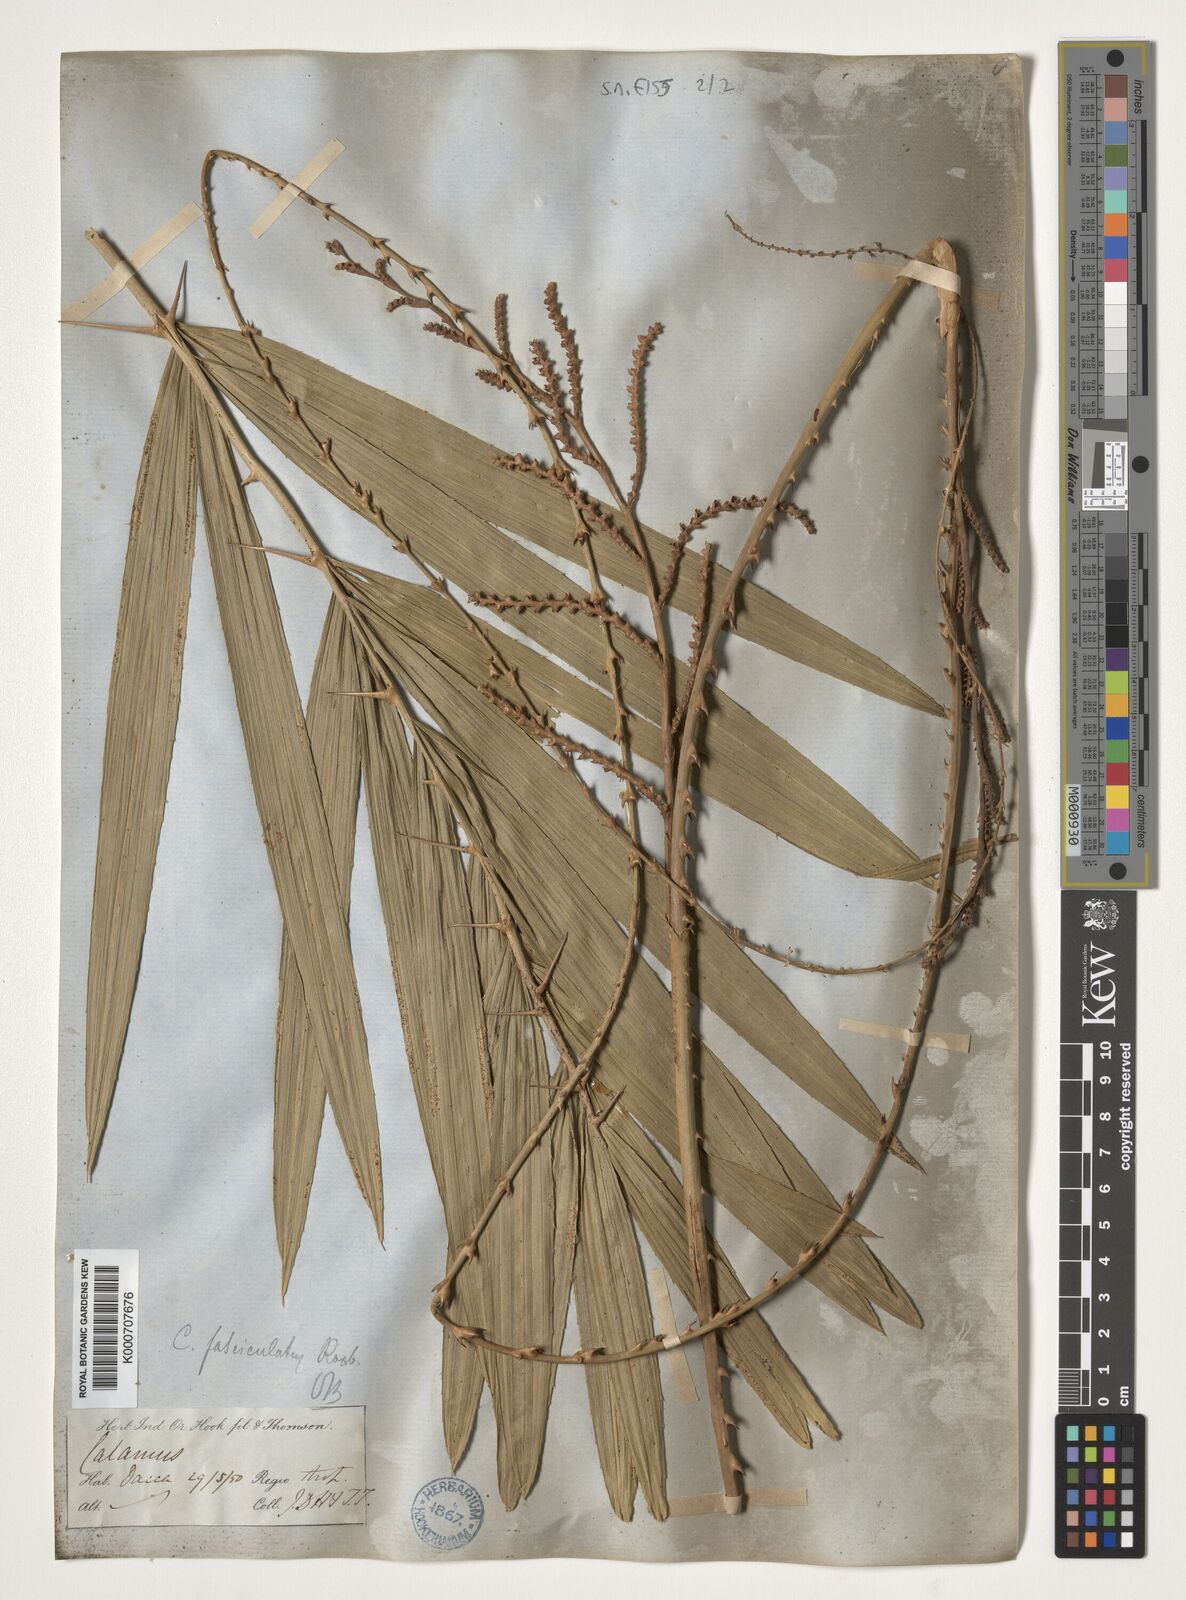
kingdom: Plantae
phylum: Tracheophyta
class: Liliopsida
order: Arecales
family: Arecaceae
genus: Calamus
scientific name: Calamus viminalis
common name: Osier-like rattan palm
